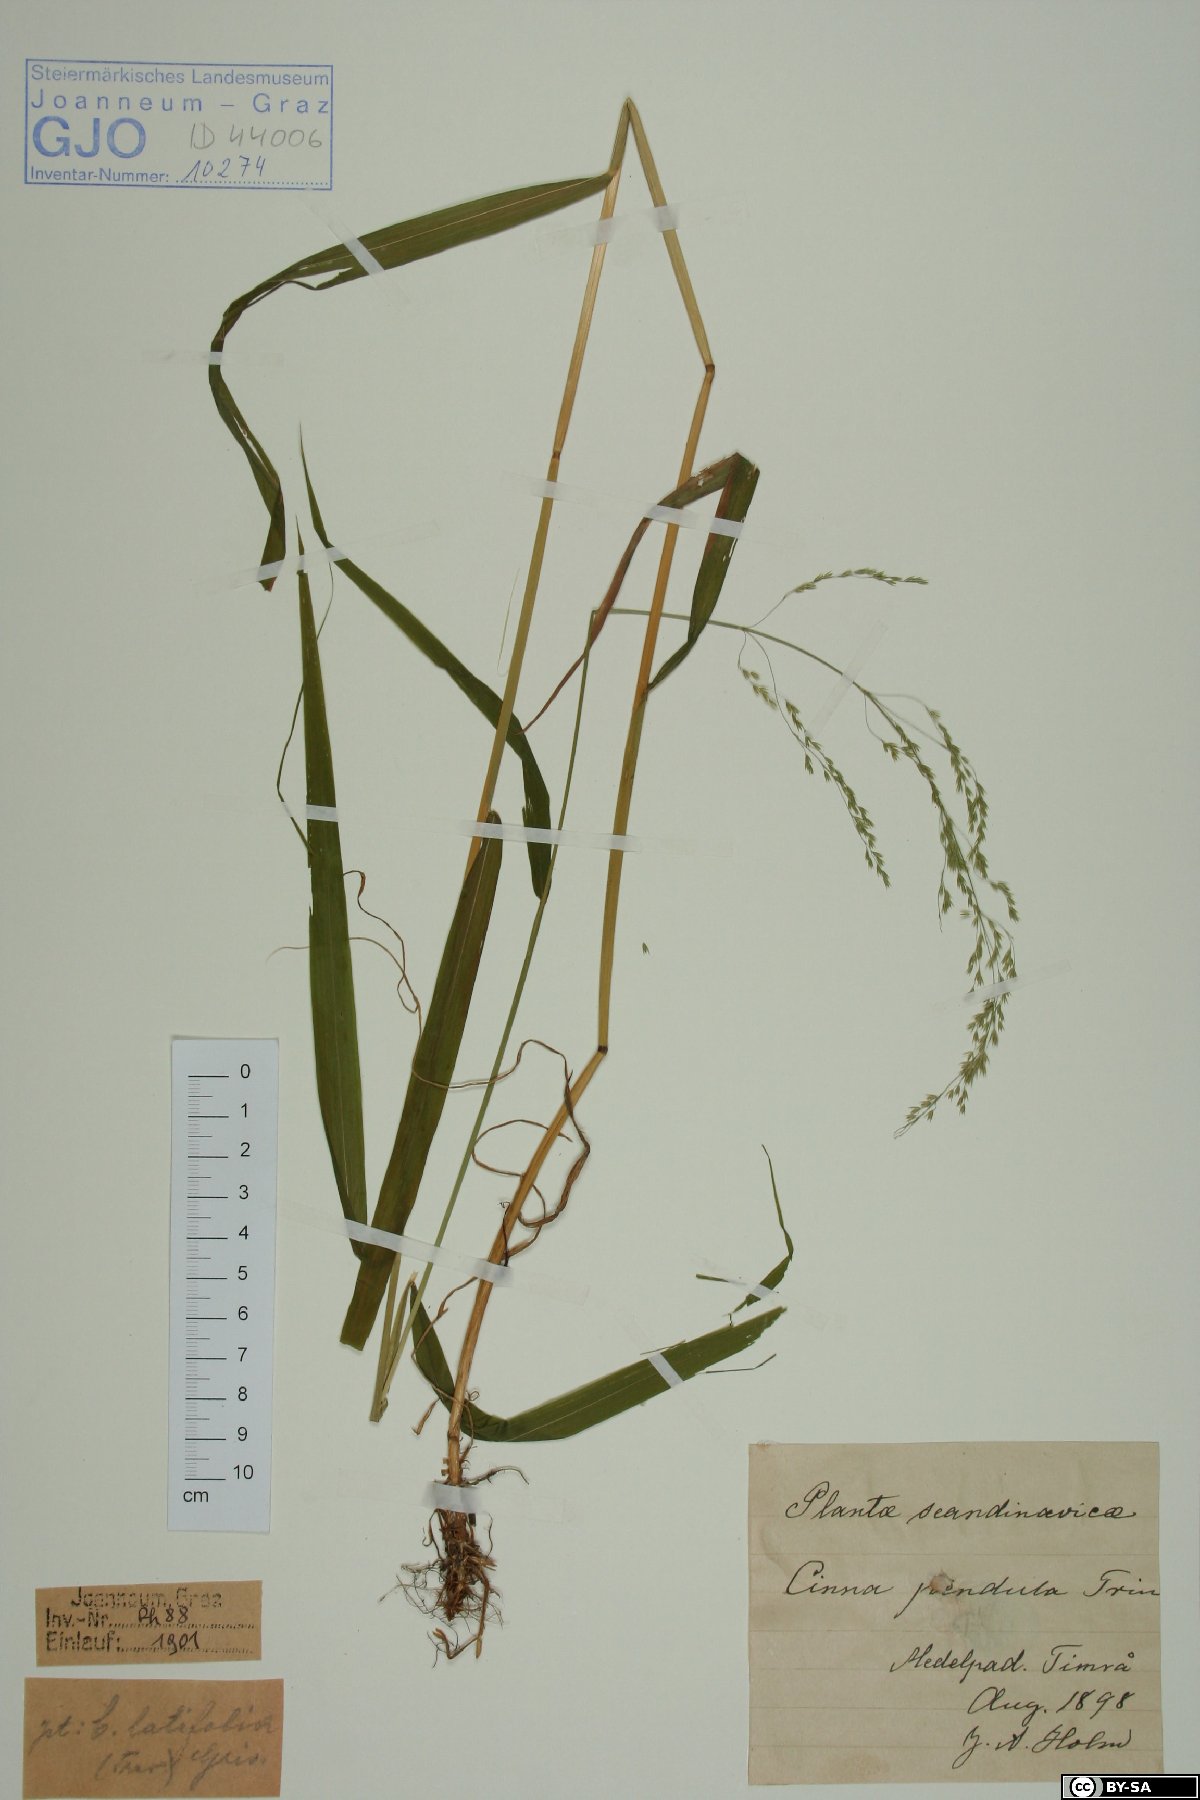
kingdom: Plantae
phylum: Tracheophyta
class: Liliopsida
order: Poales
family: Poaceae
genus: Cinna
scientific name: Cinna latifolia
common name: Drooping woodreed
